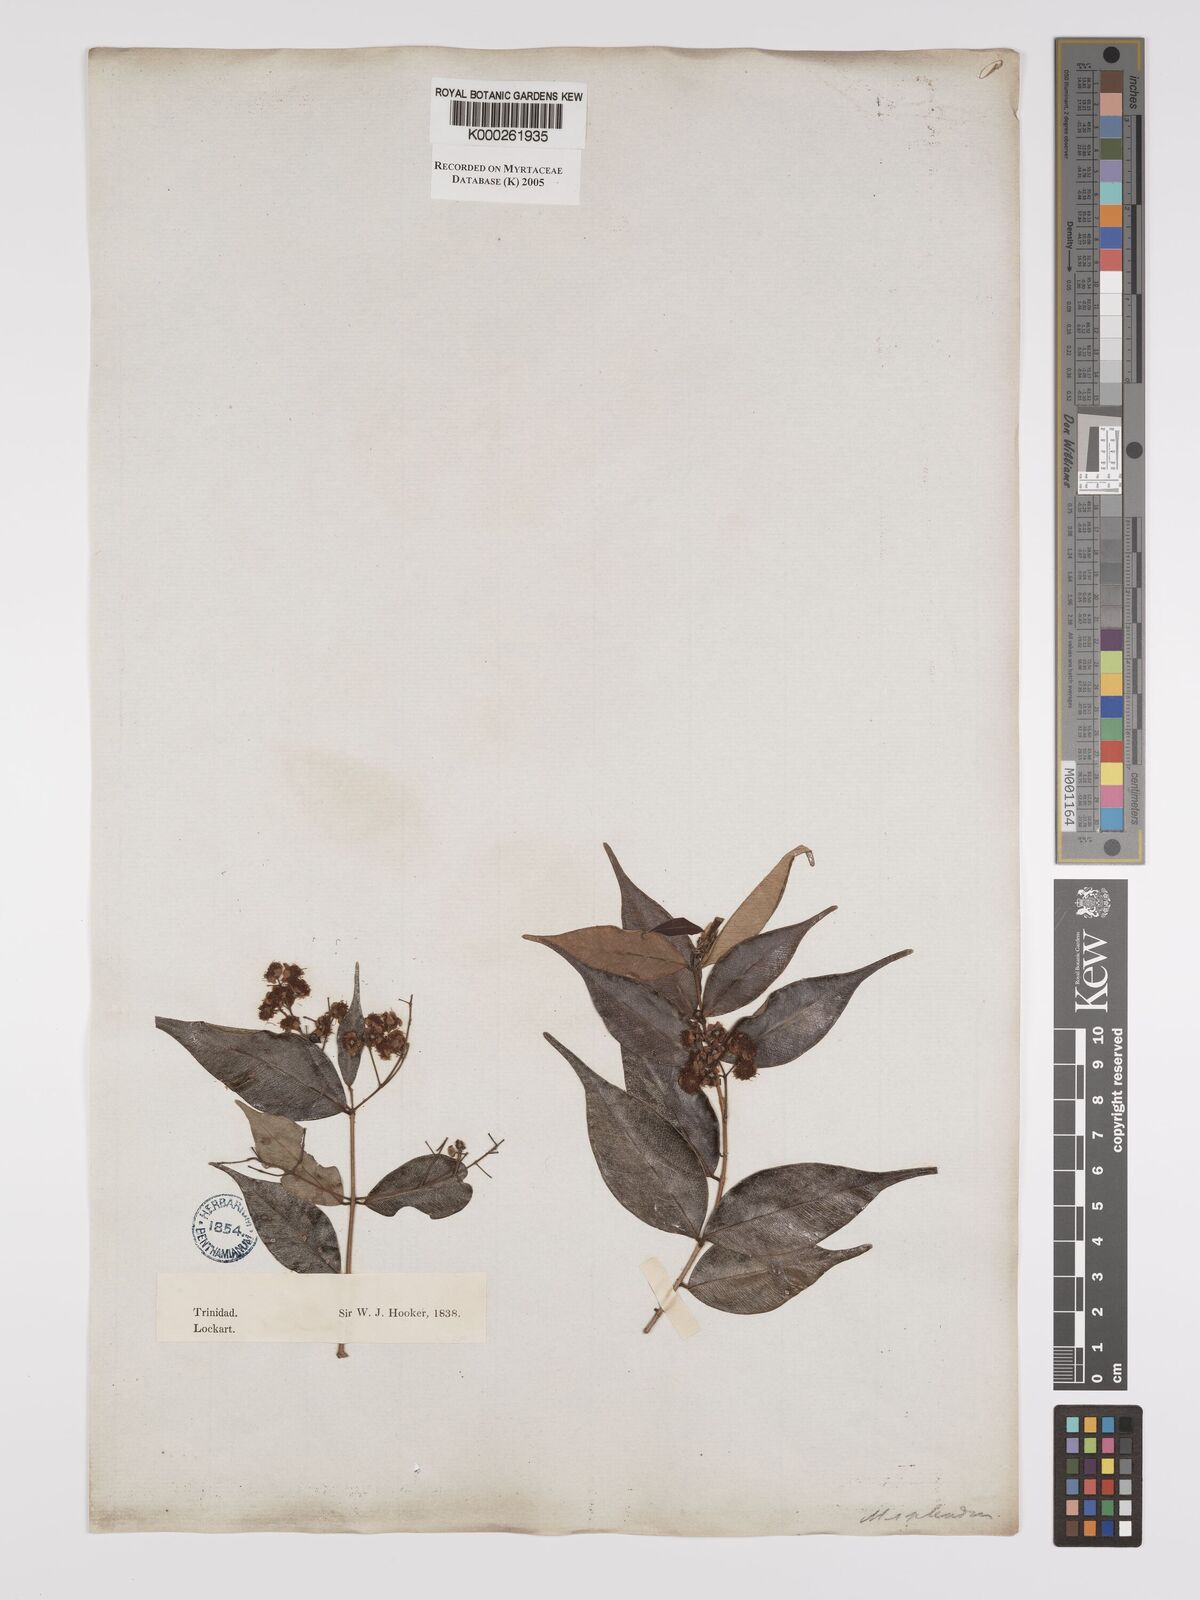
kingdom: Plantae
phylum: Tracheophyta
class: Magnoliopsida
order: Myrtales
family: Myrtaceae
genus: Myrcia
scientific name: Myrcia splendens
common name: Surinam cherry
